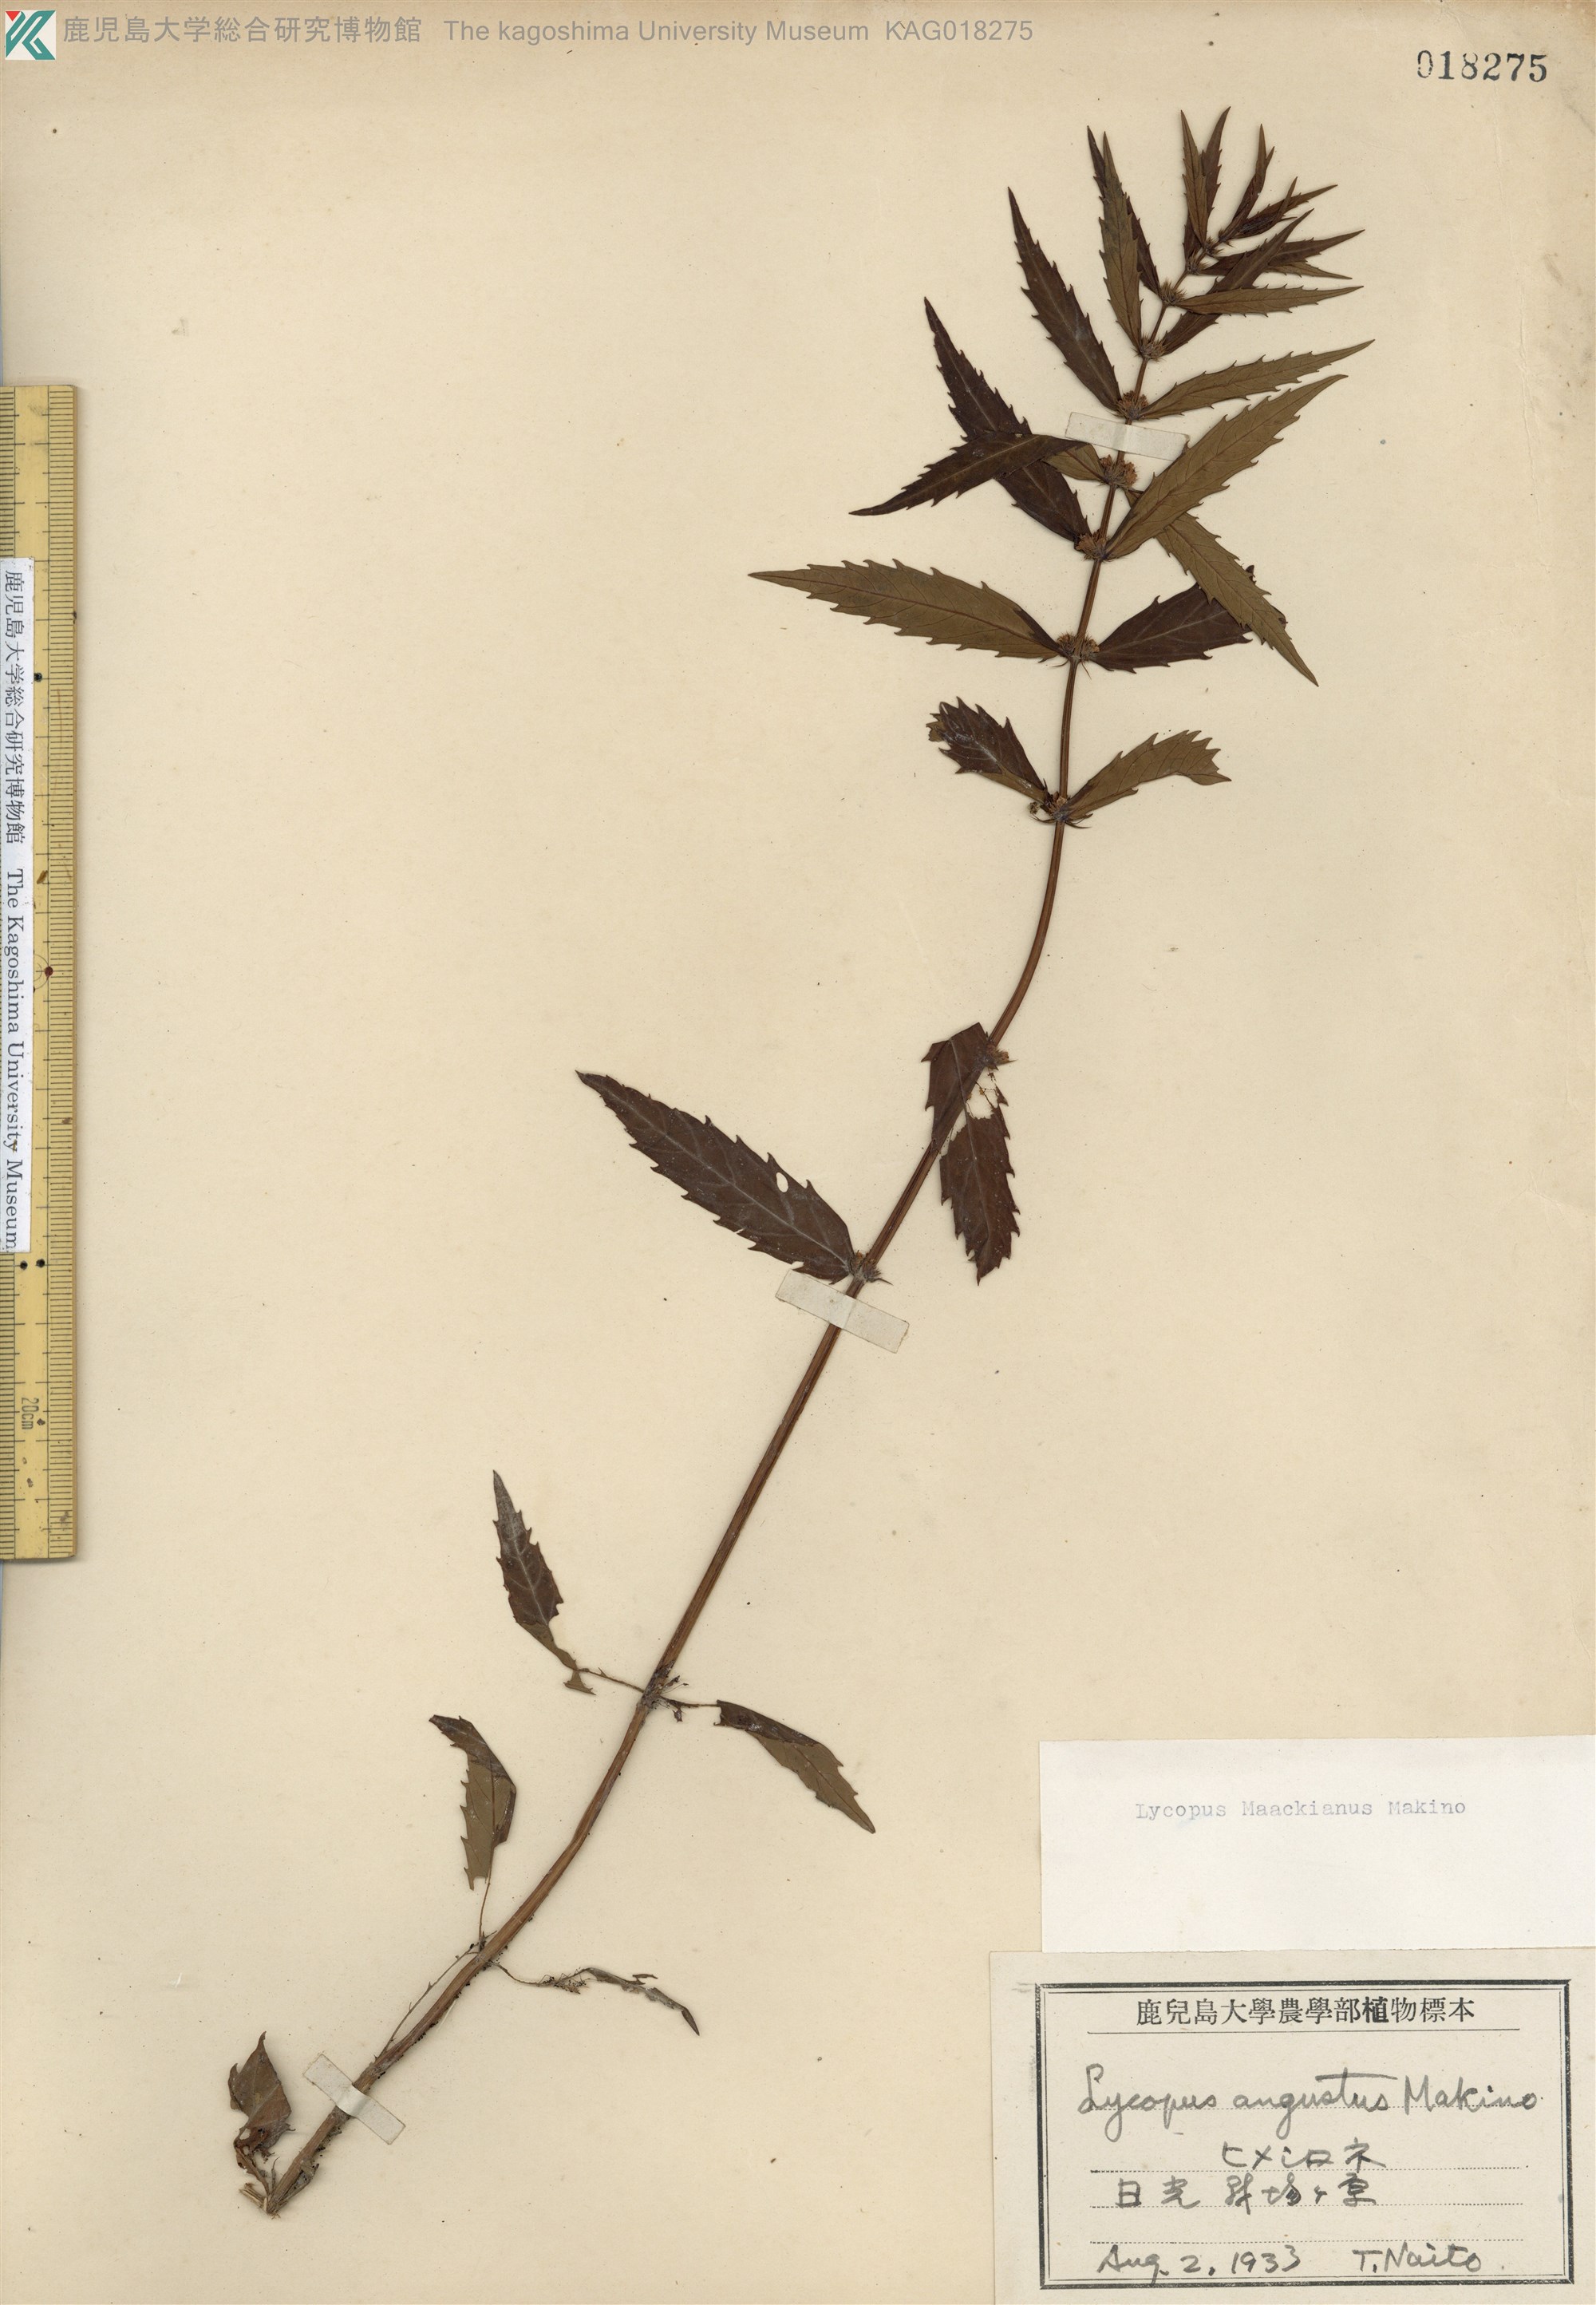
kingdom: Plantae
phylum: Tracheophyta
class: Magnoliopsida
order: Lamiales
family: Lamiaceae
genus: Lycopus
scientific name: Lycopus lucidus
